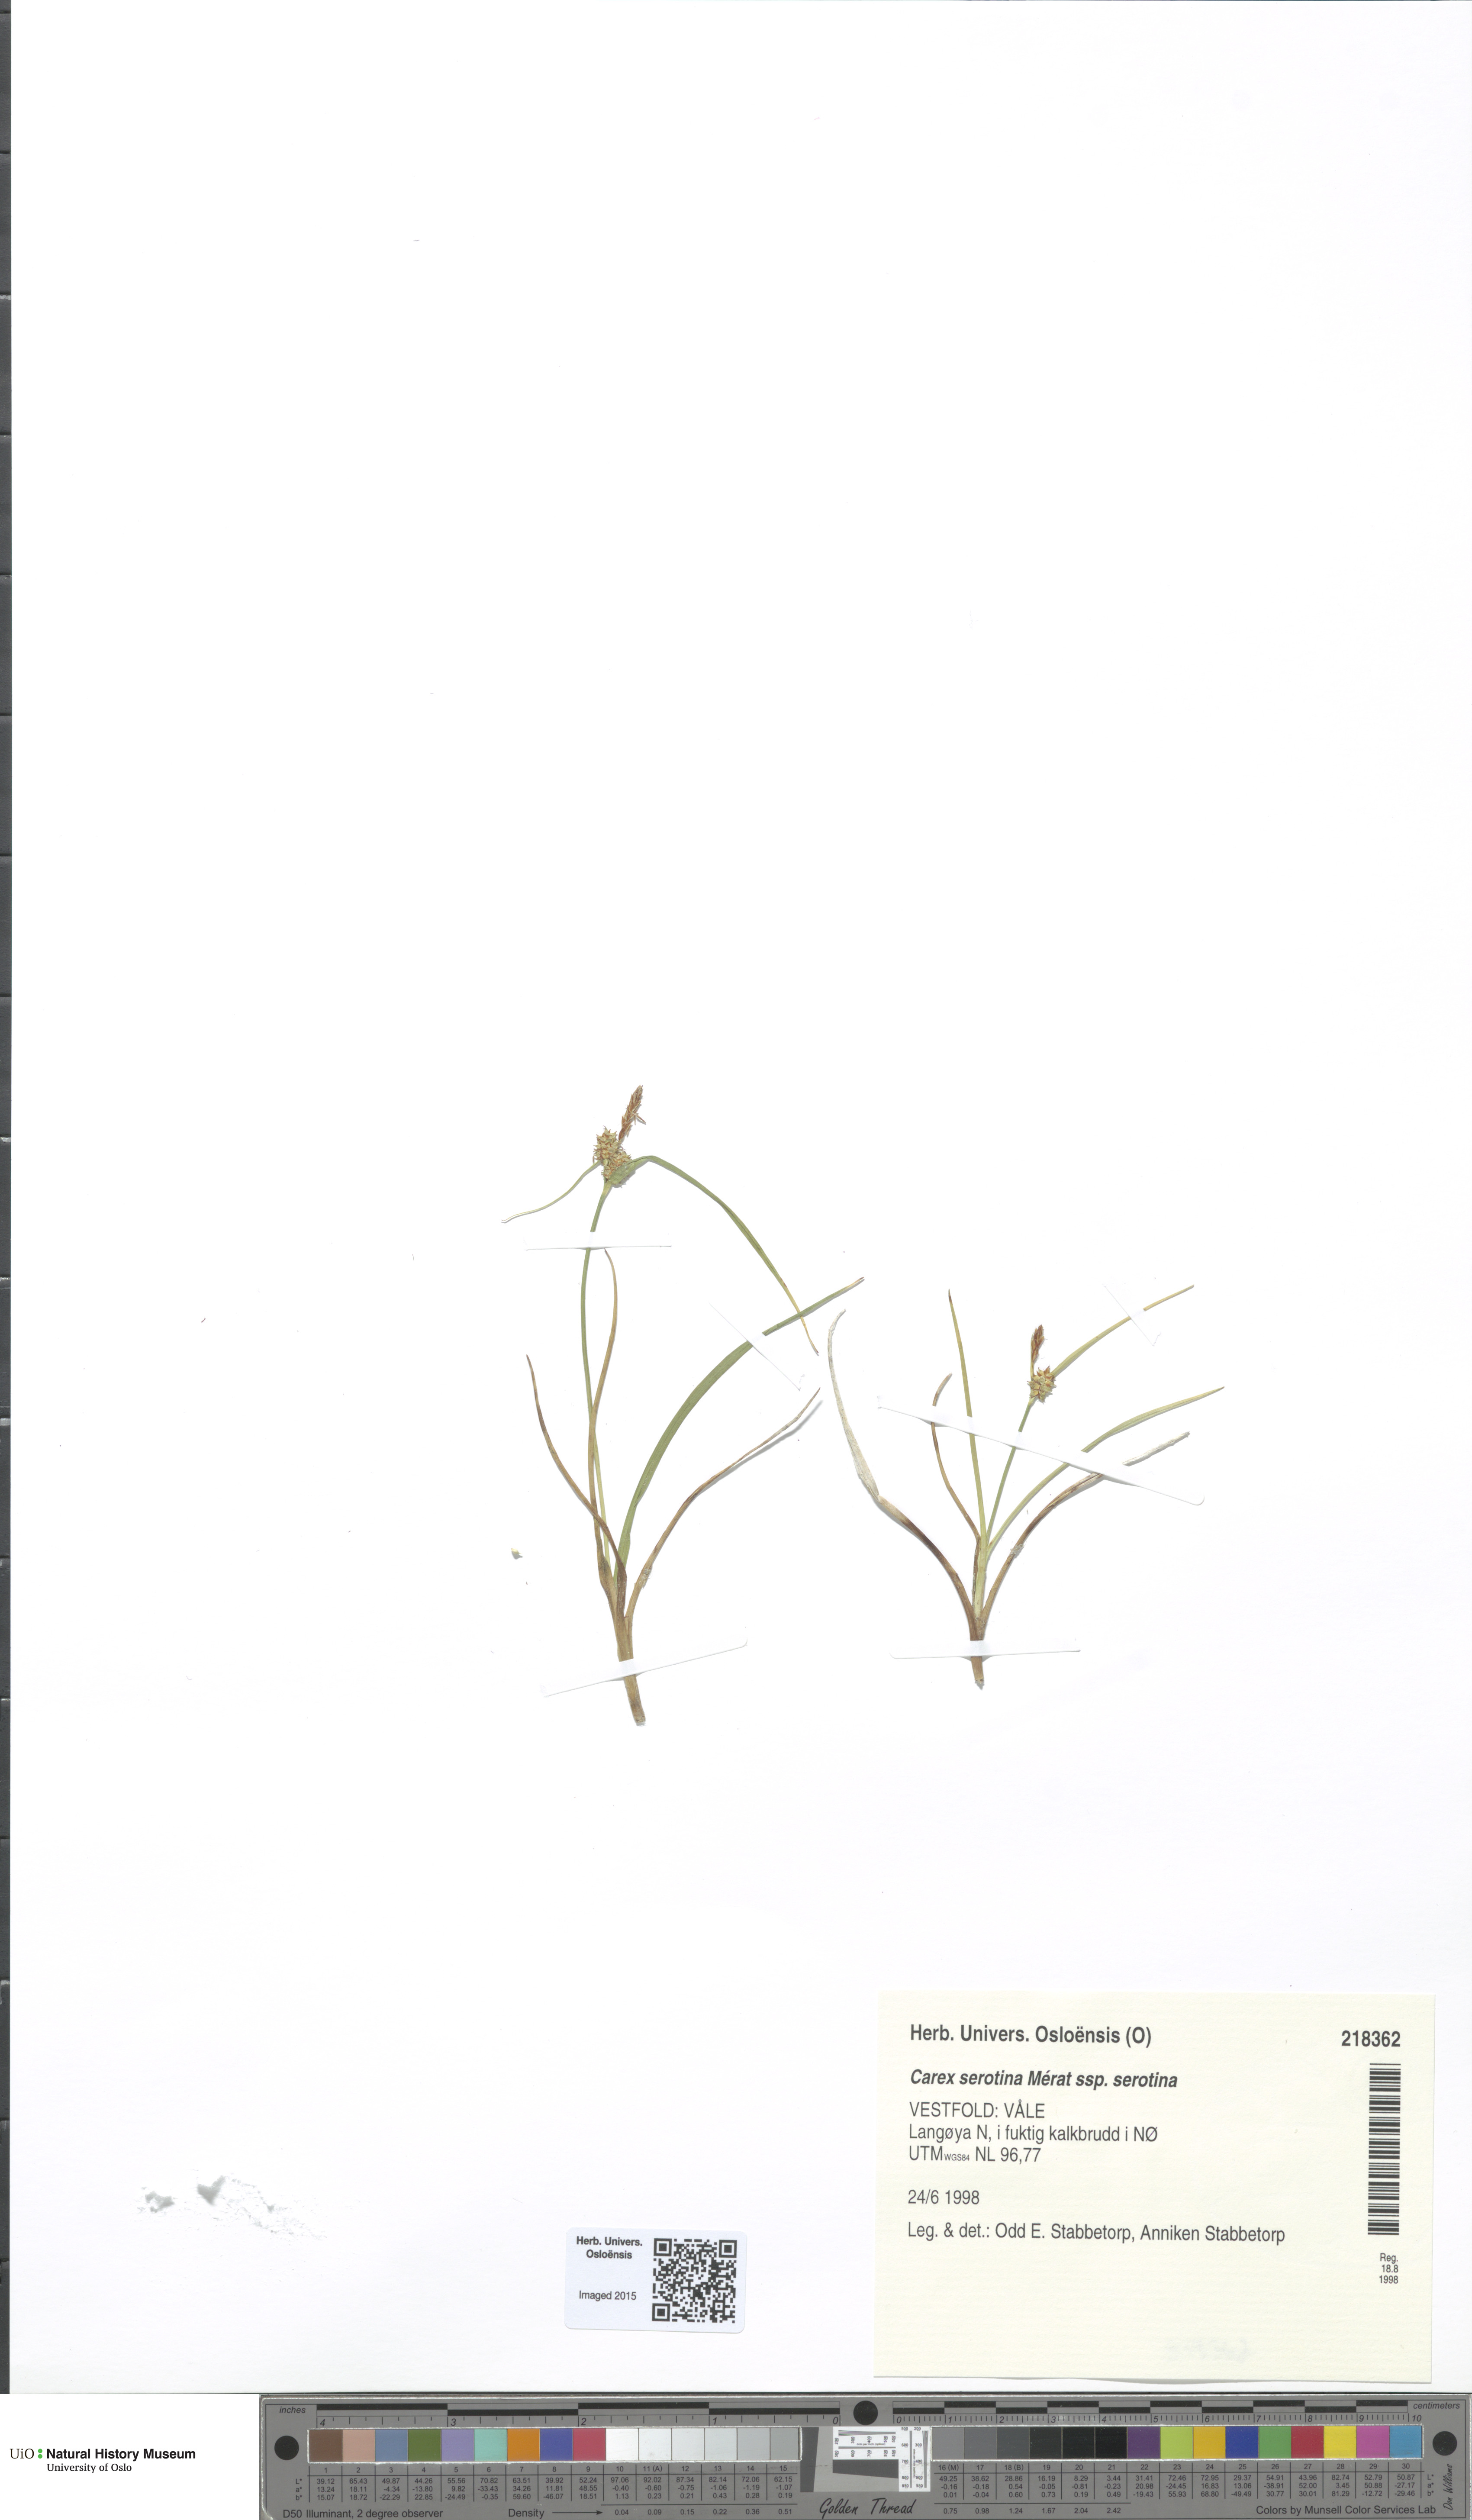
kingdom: Plantae
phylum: Tracheophyta
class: Liliopsida
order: Poales
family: Cyperaceae
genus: Carex
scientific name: Carex oederi
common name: Common & small-fruited yellow-sedge
